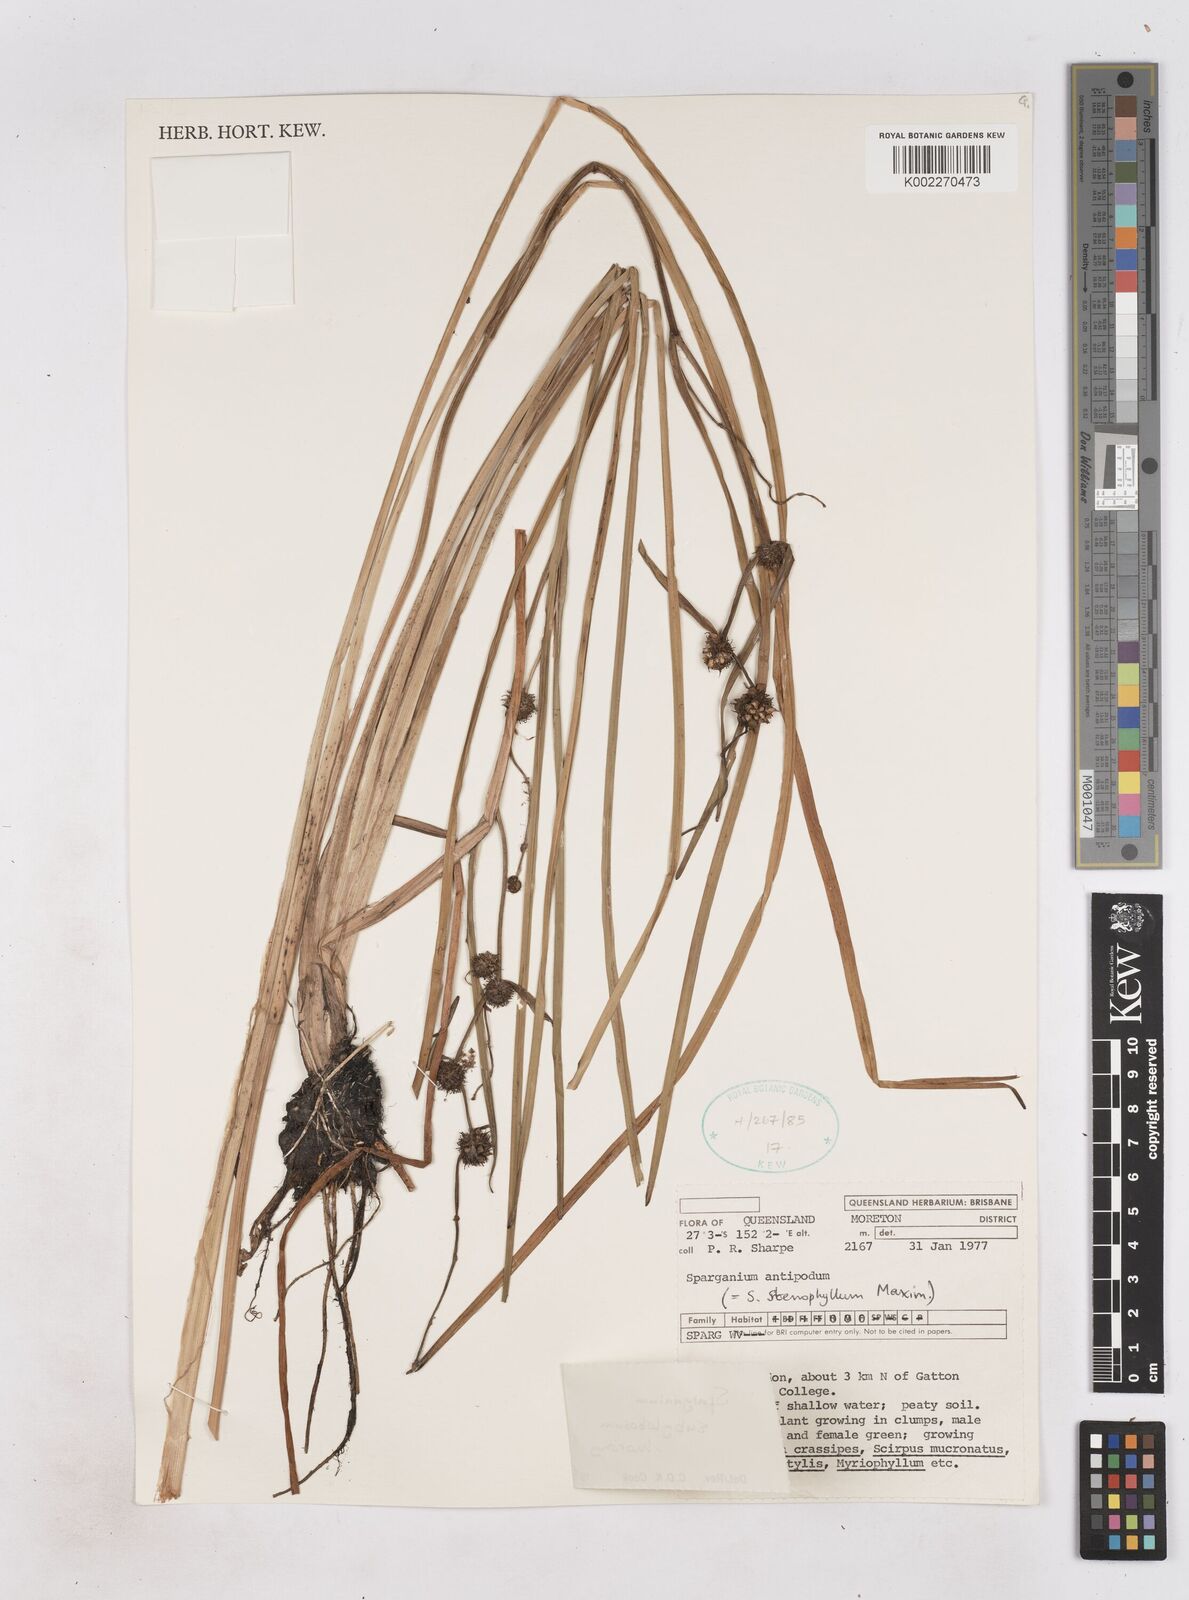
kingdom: Plantae
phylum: Tracheophyta
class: Liliopsida
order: Poales
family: Typhaceae
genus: Sparganium
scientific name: Sparganium subglobosum
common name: Burr­-reed
